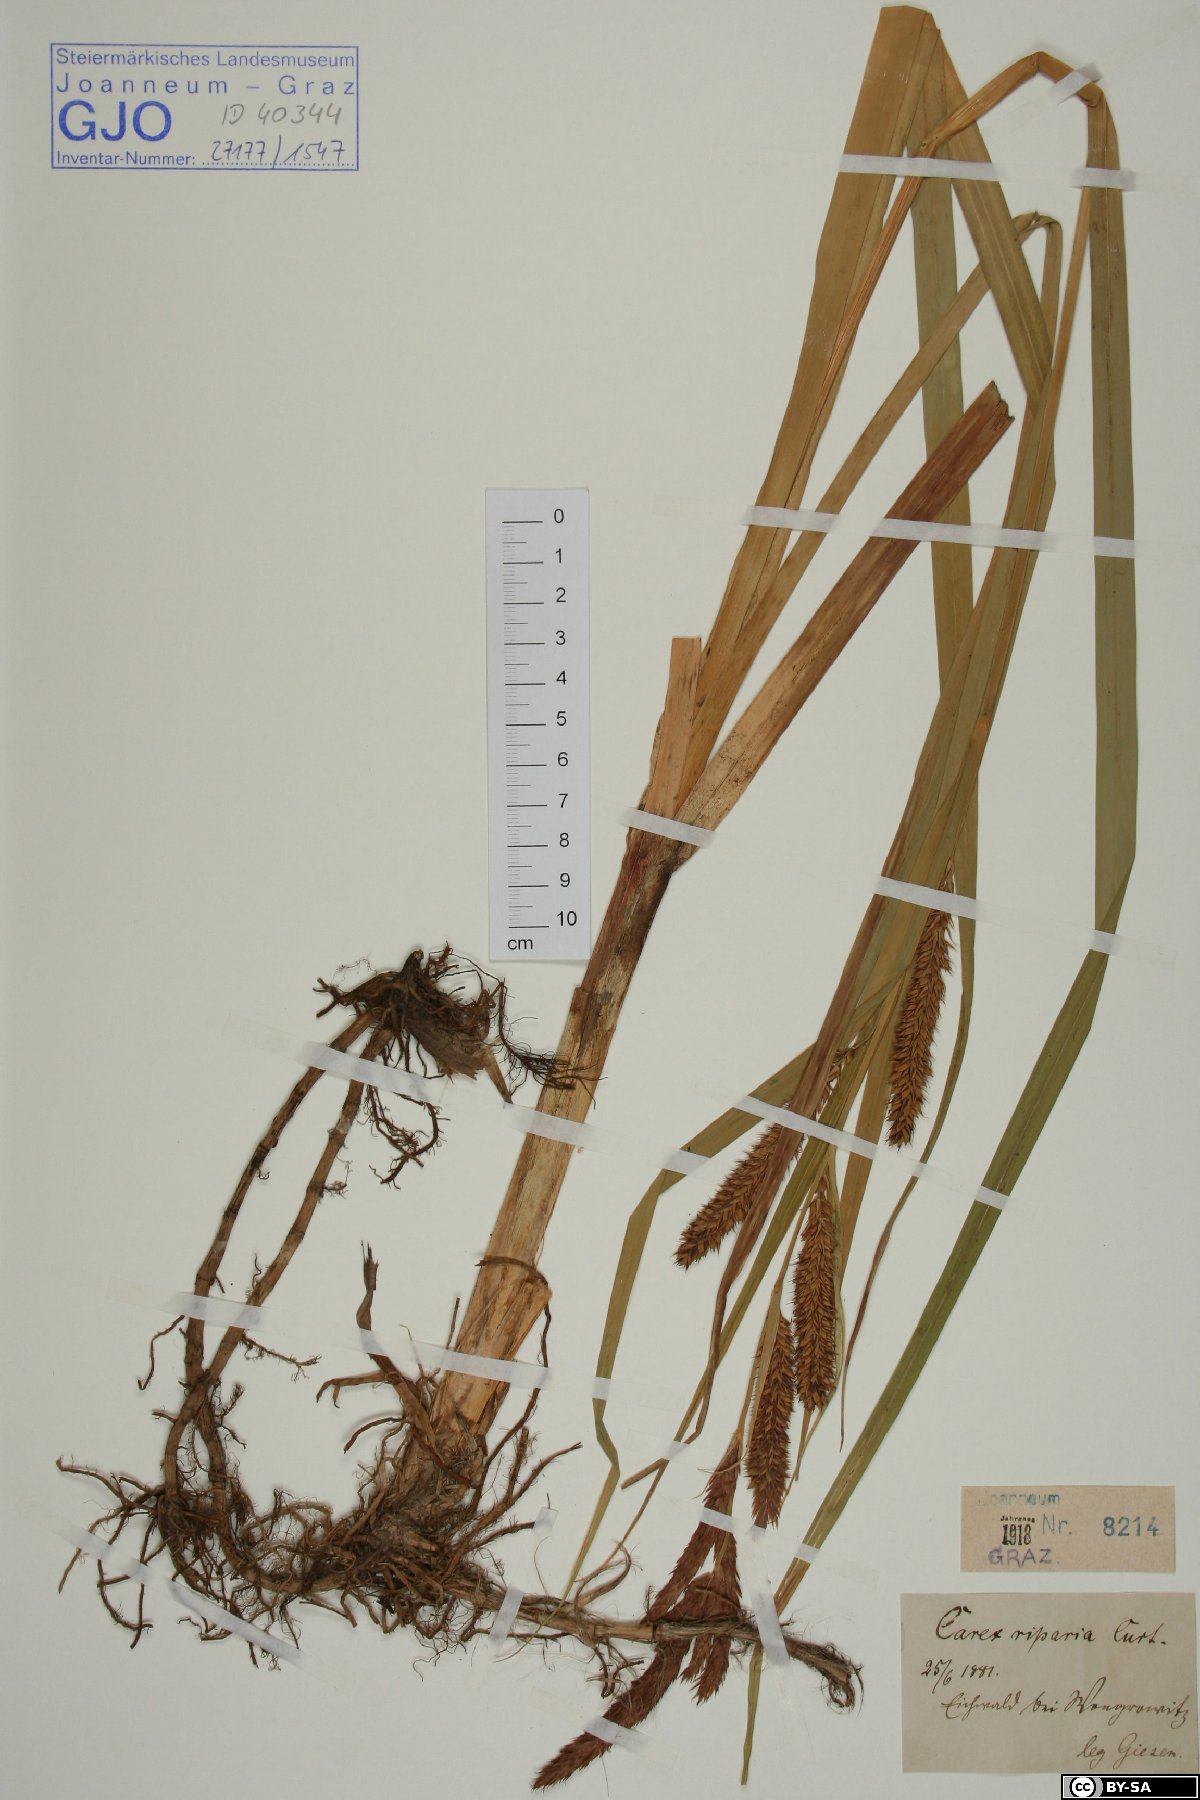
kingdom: Plantae
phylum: Tracheophyta
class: Liliopsida
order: Poales
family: Cyperaceae
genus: Carex
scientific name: Carex riparia
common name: Greater pond-sedge
